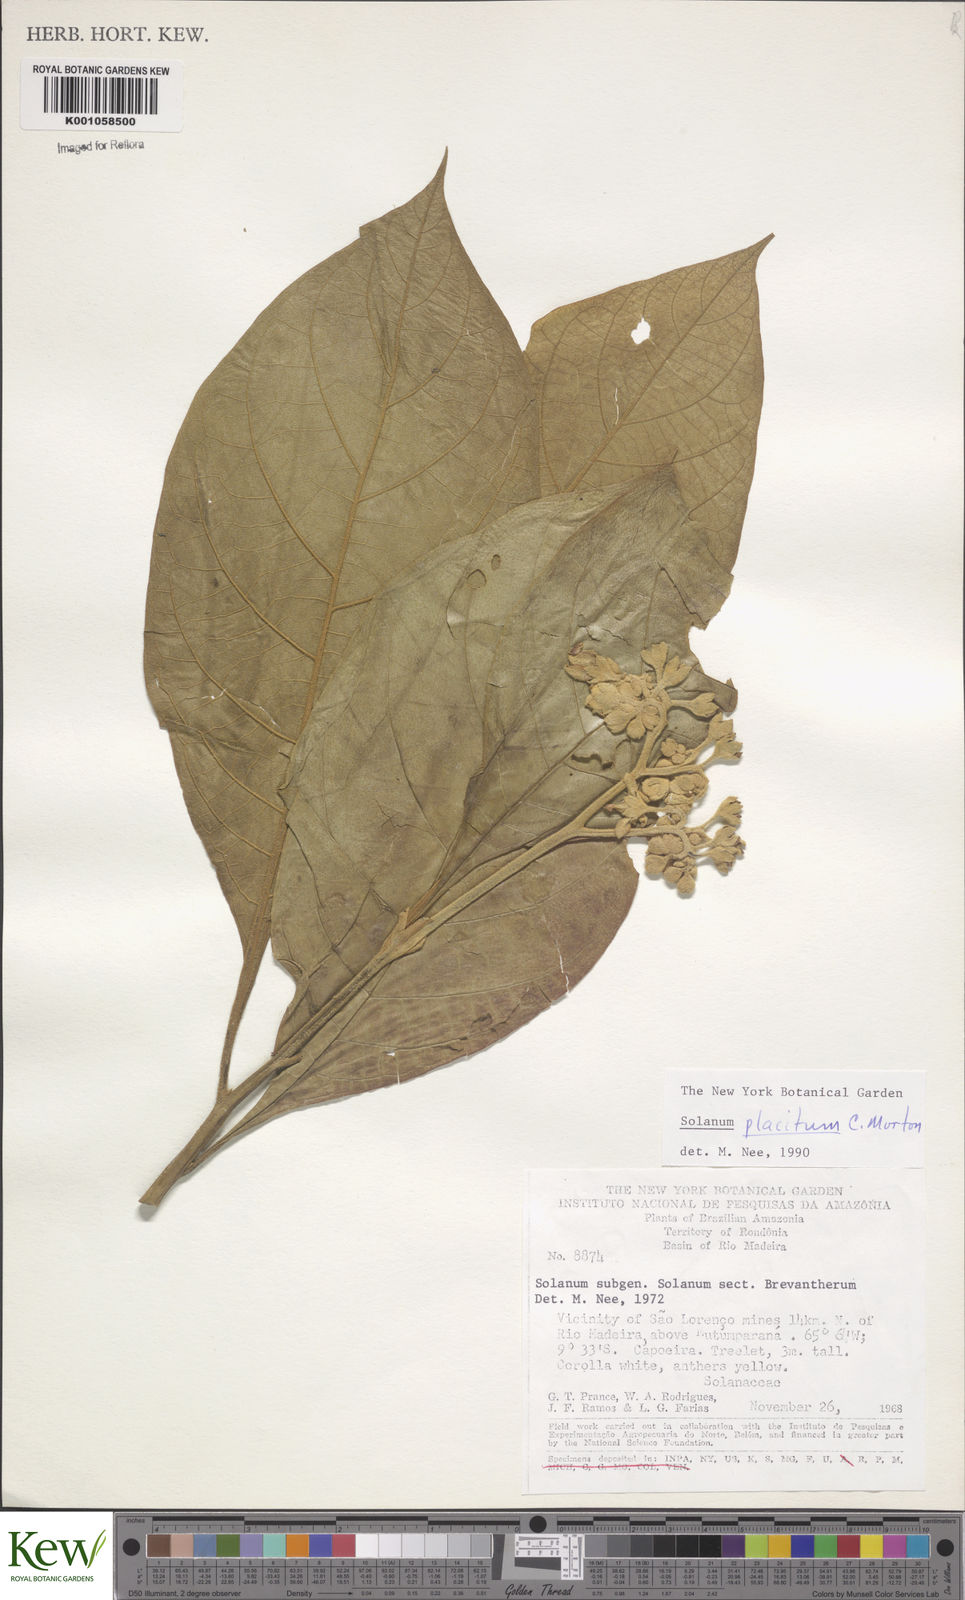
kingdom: Plantae
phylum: Tracheophyta
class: Magnoliopsida
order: Solanales
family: Solanaceae
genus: Solanum
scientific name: Solanum placitum
